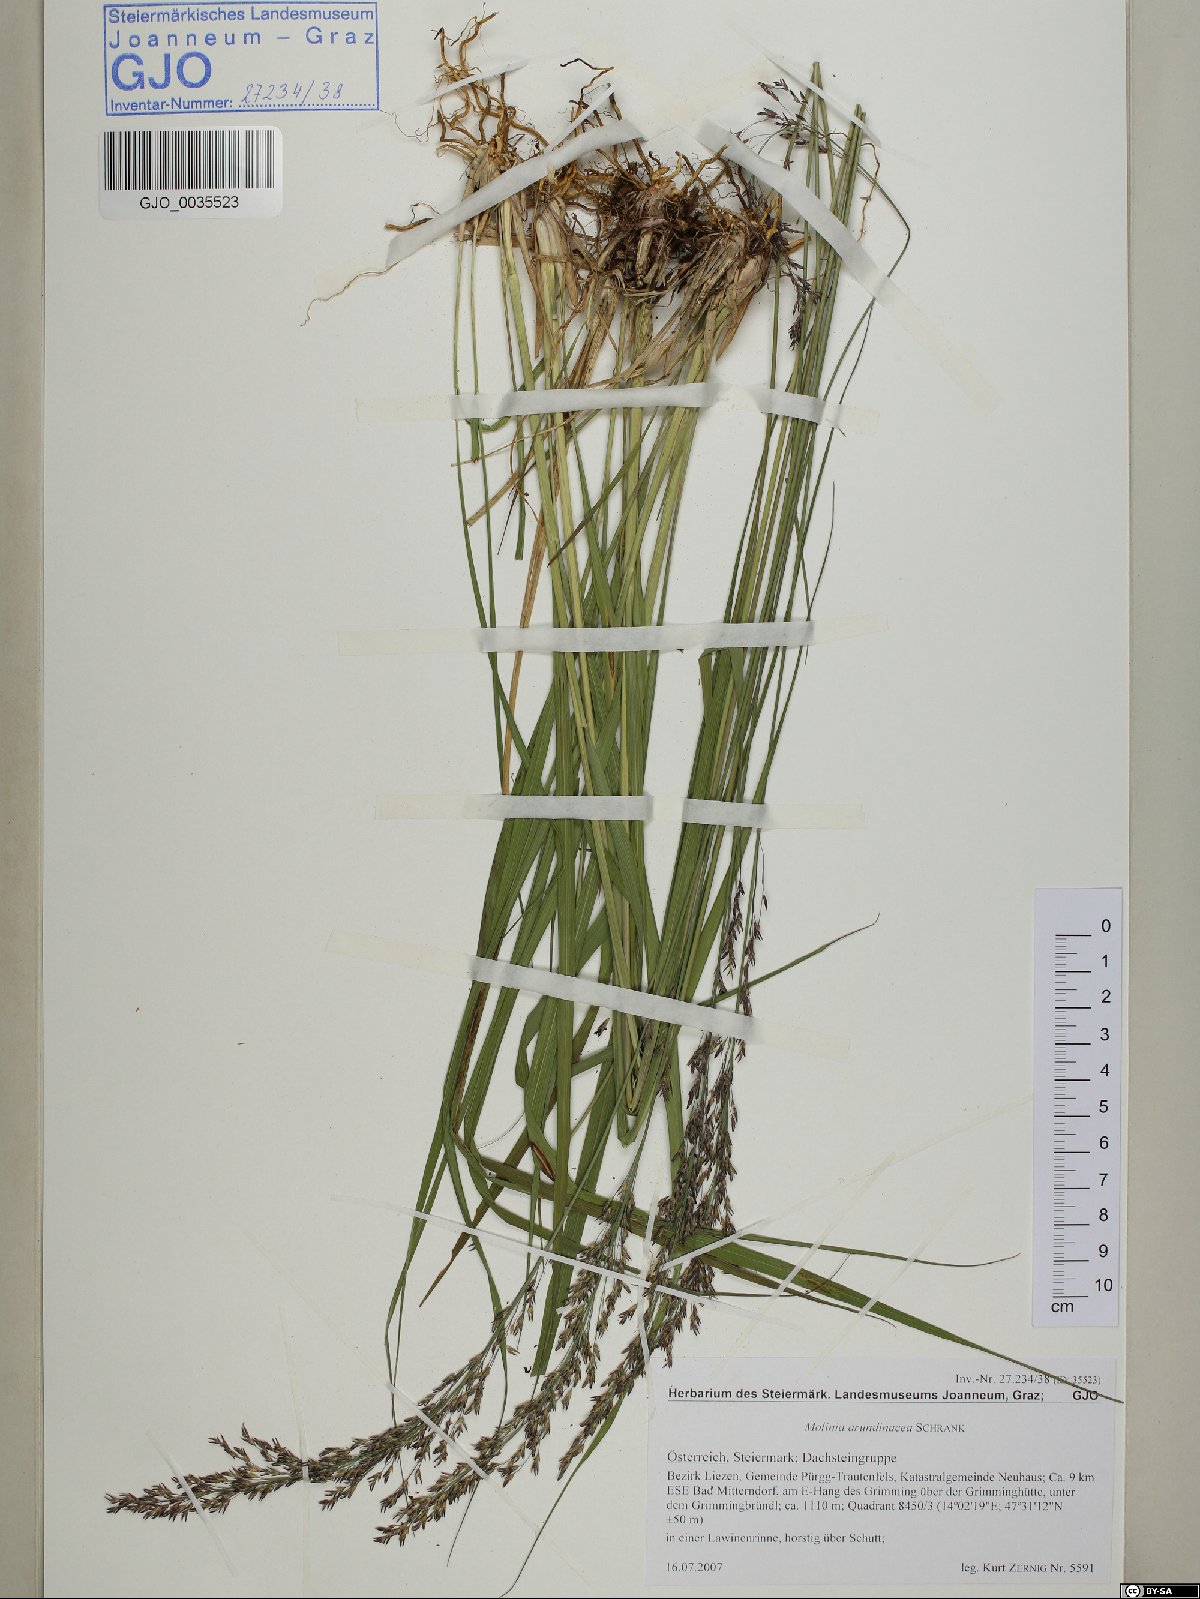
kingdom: Plantae
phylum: Tracheophyta
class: Liliopsida
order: Poales
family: Poaceae
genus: Molinia
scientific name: Molinia arundinacea
